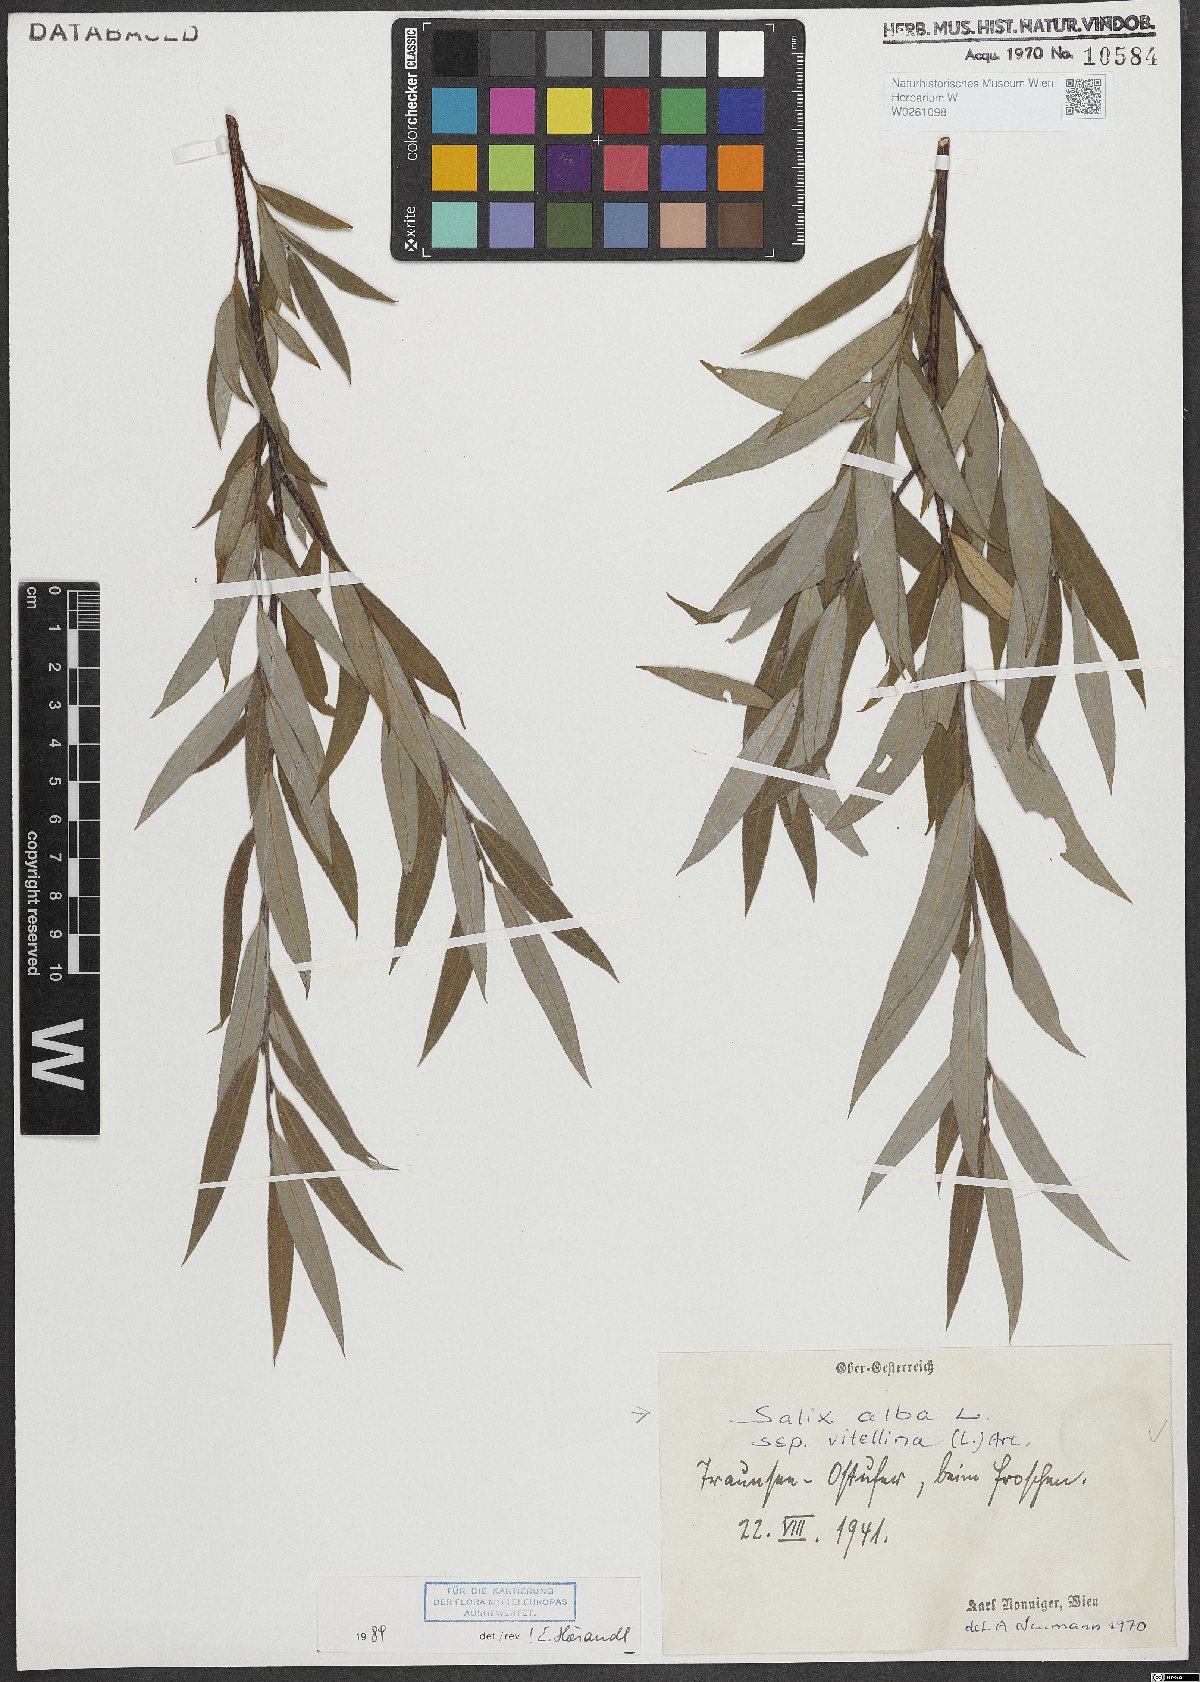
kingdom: Plantae
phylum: Tracheophyta
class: Magnoliopsida
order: Malpighiales
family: Salicaceae
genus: Salix
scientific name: Salix alba
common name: White willow
